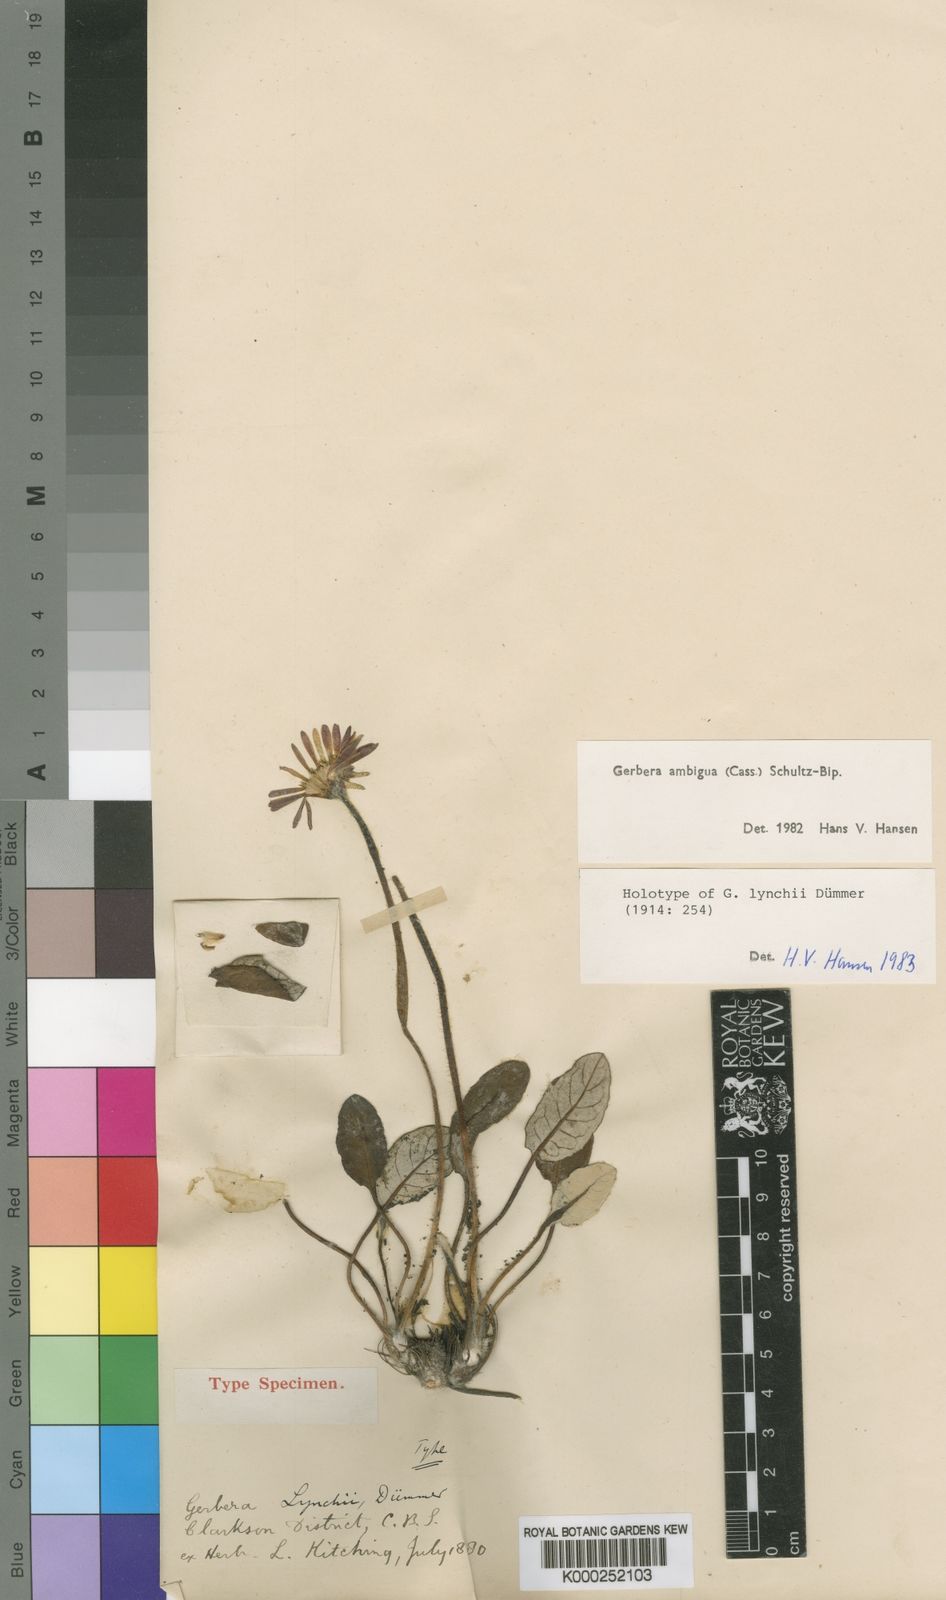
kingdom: Plantae
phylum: Tracheophyta
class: Magnoliopsida
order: Asterales
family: Asteraceae
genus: Gerbera
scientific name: Gerbera ambigua
